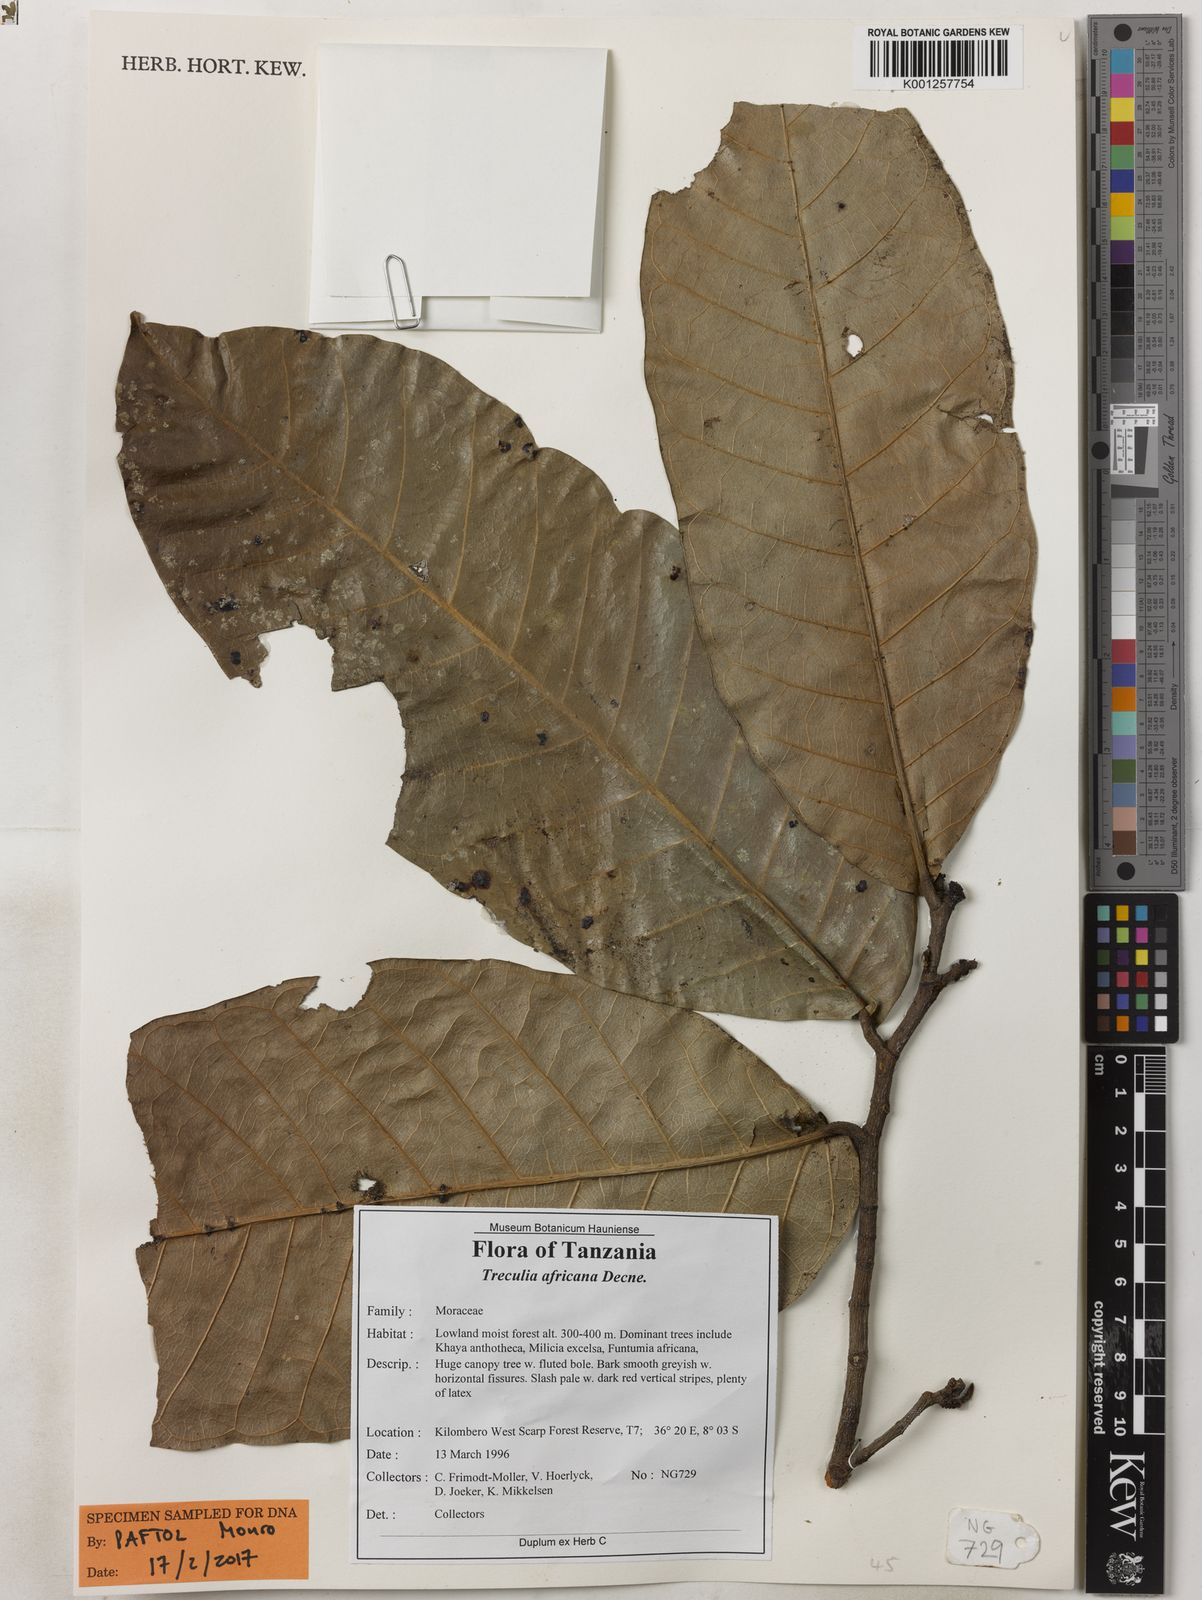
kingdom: Plantae
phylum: Tracheophyta
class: Magnoliopsida
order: Rosales
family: Moraceae
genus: Treculia
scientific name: Treculia
